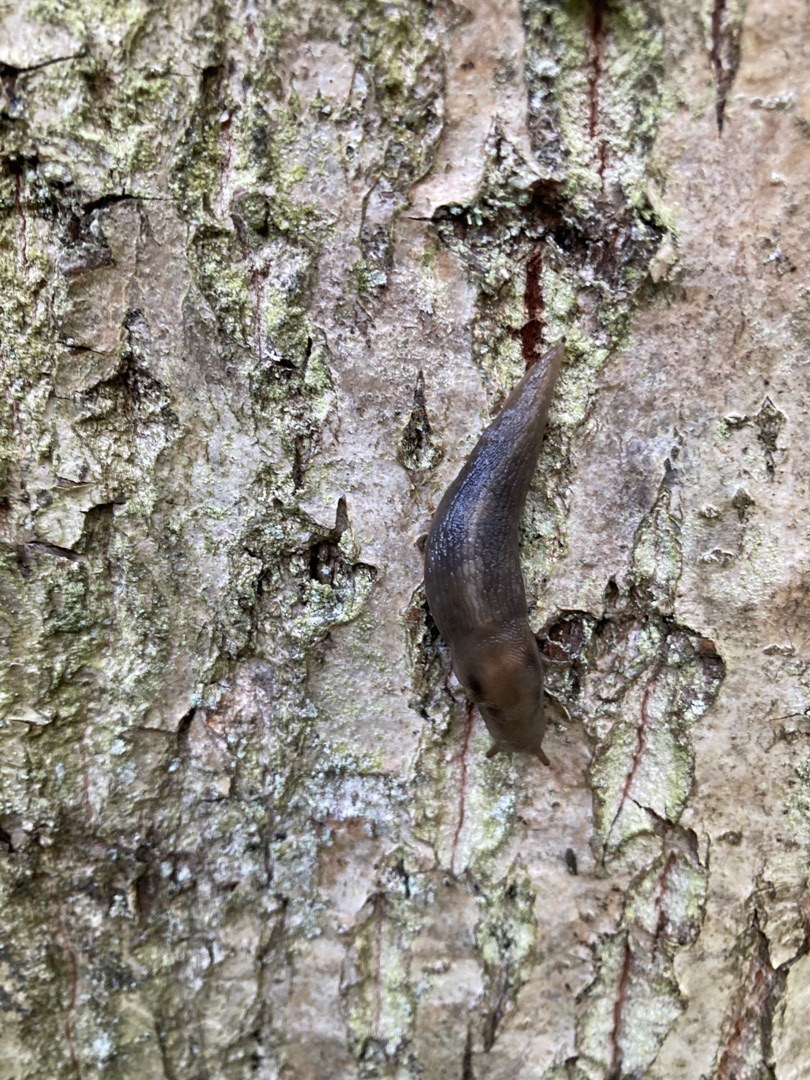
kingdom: Animalia
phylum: Mollusca
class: Gastropoda
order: Stylommatophora
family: Limacidae
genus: Lehmannia
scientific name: Lehmannia marginata
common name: Bøgesnegl
